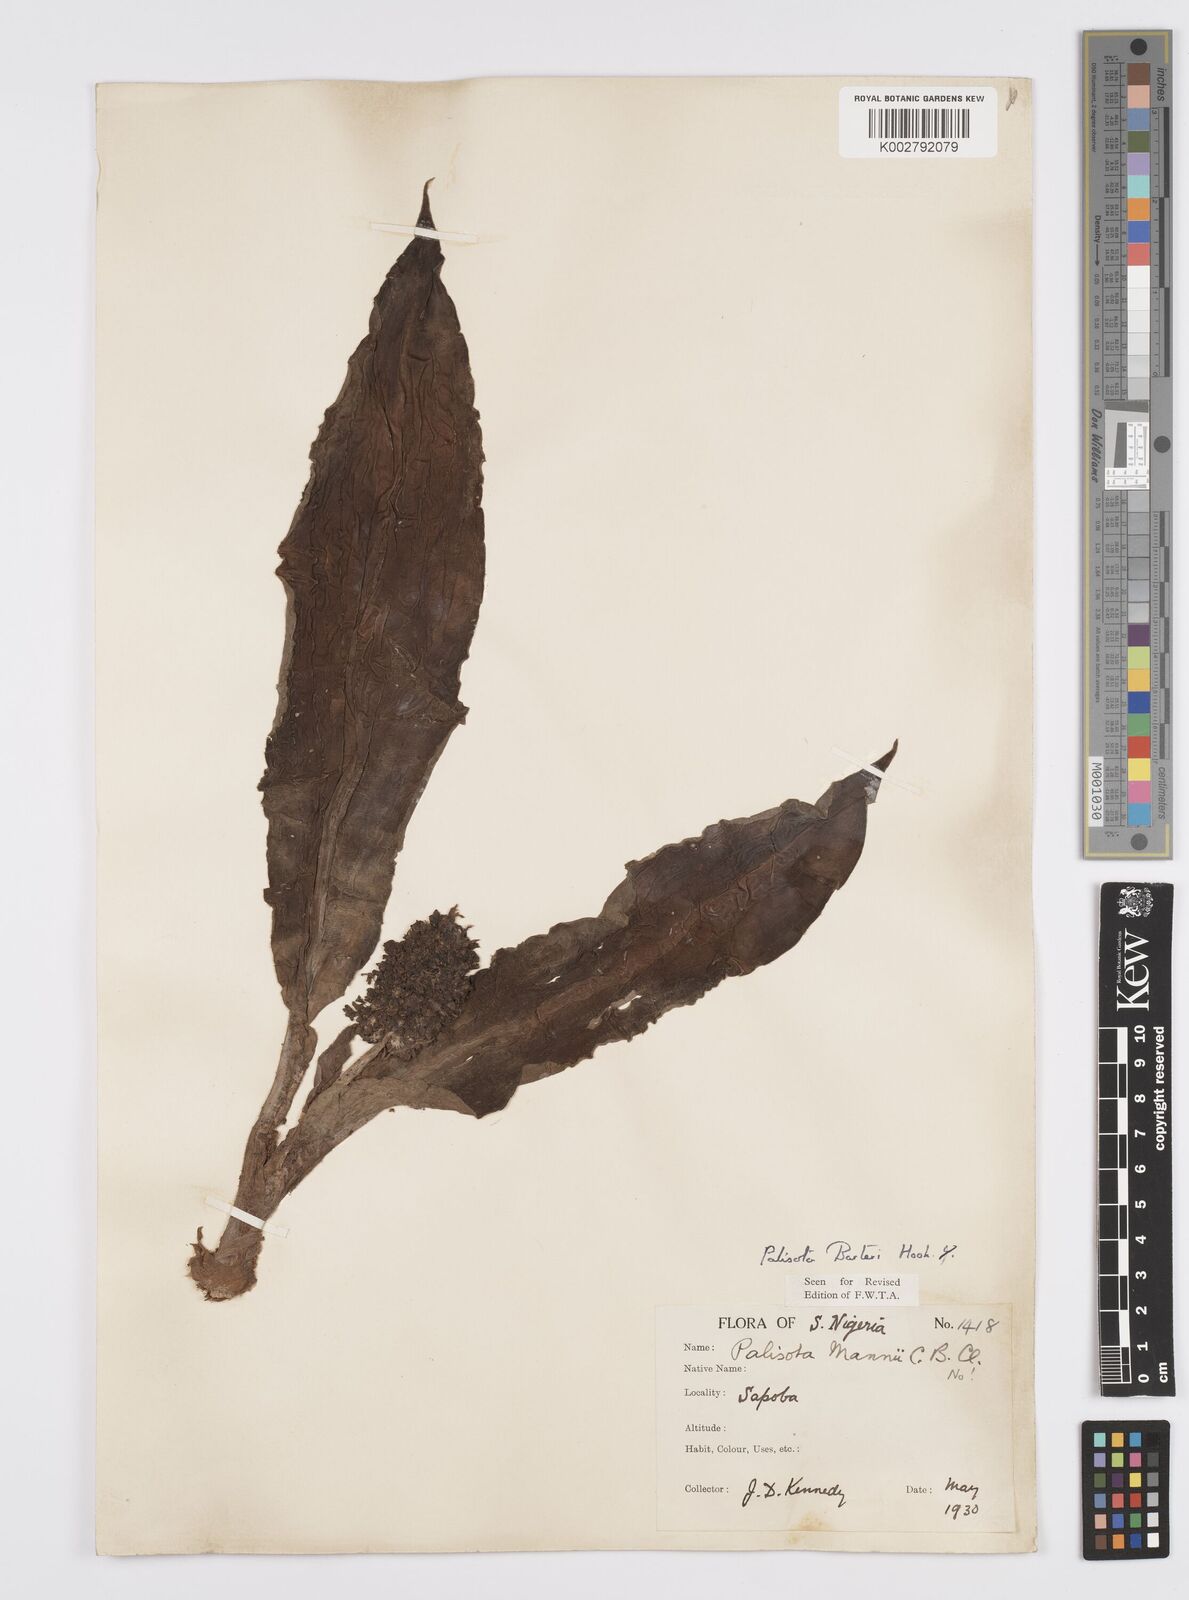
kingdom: Plantae
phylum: Tracheophyta
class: Liliopsida
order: Commelinales
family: Commelinaceae
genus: Palisota
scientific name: Palisota barteri
